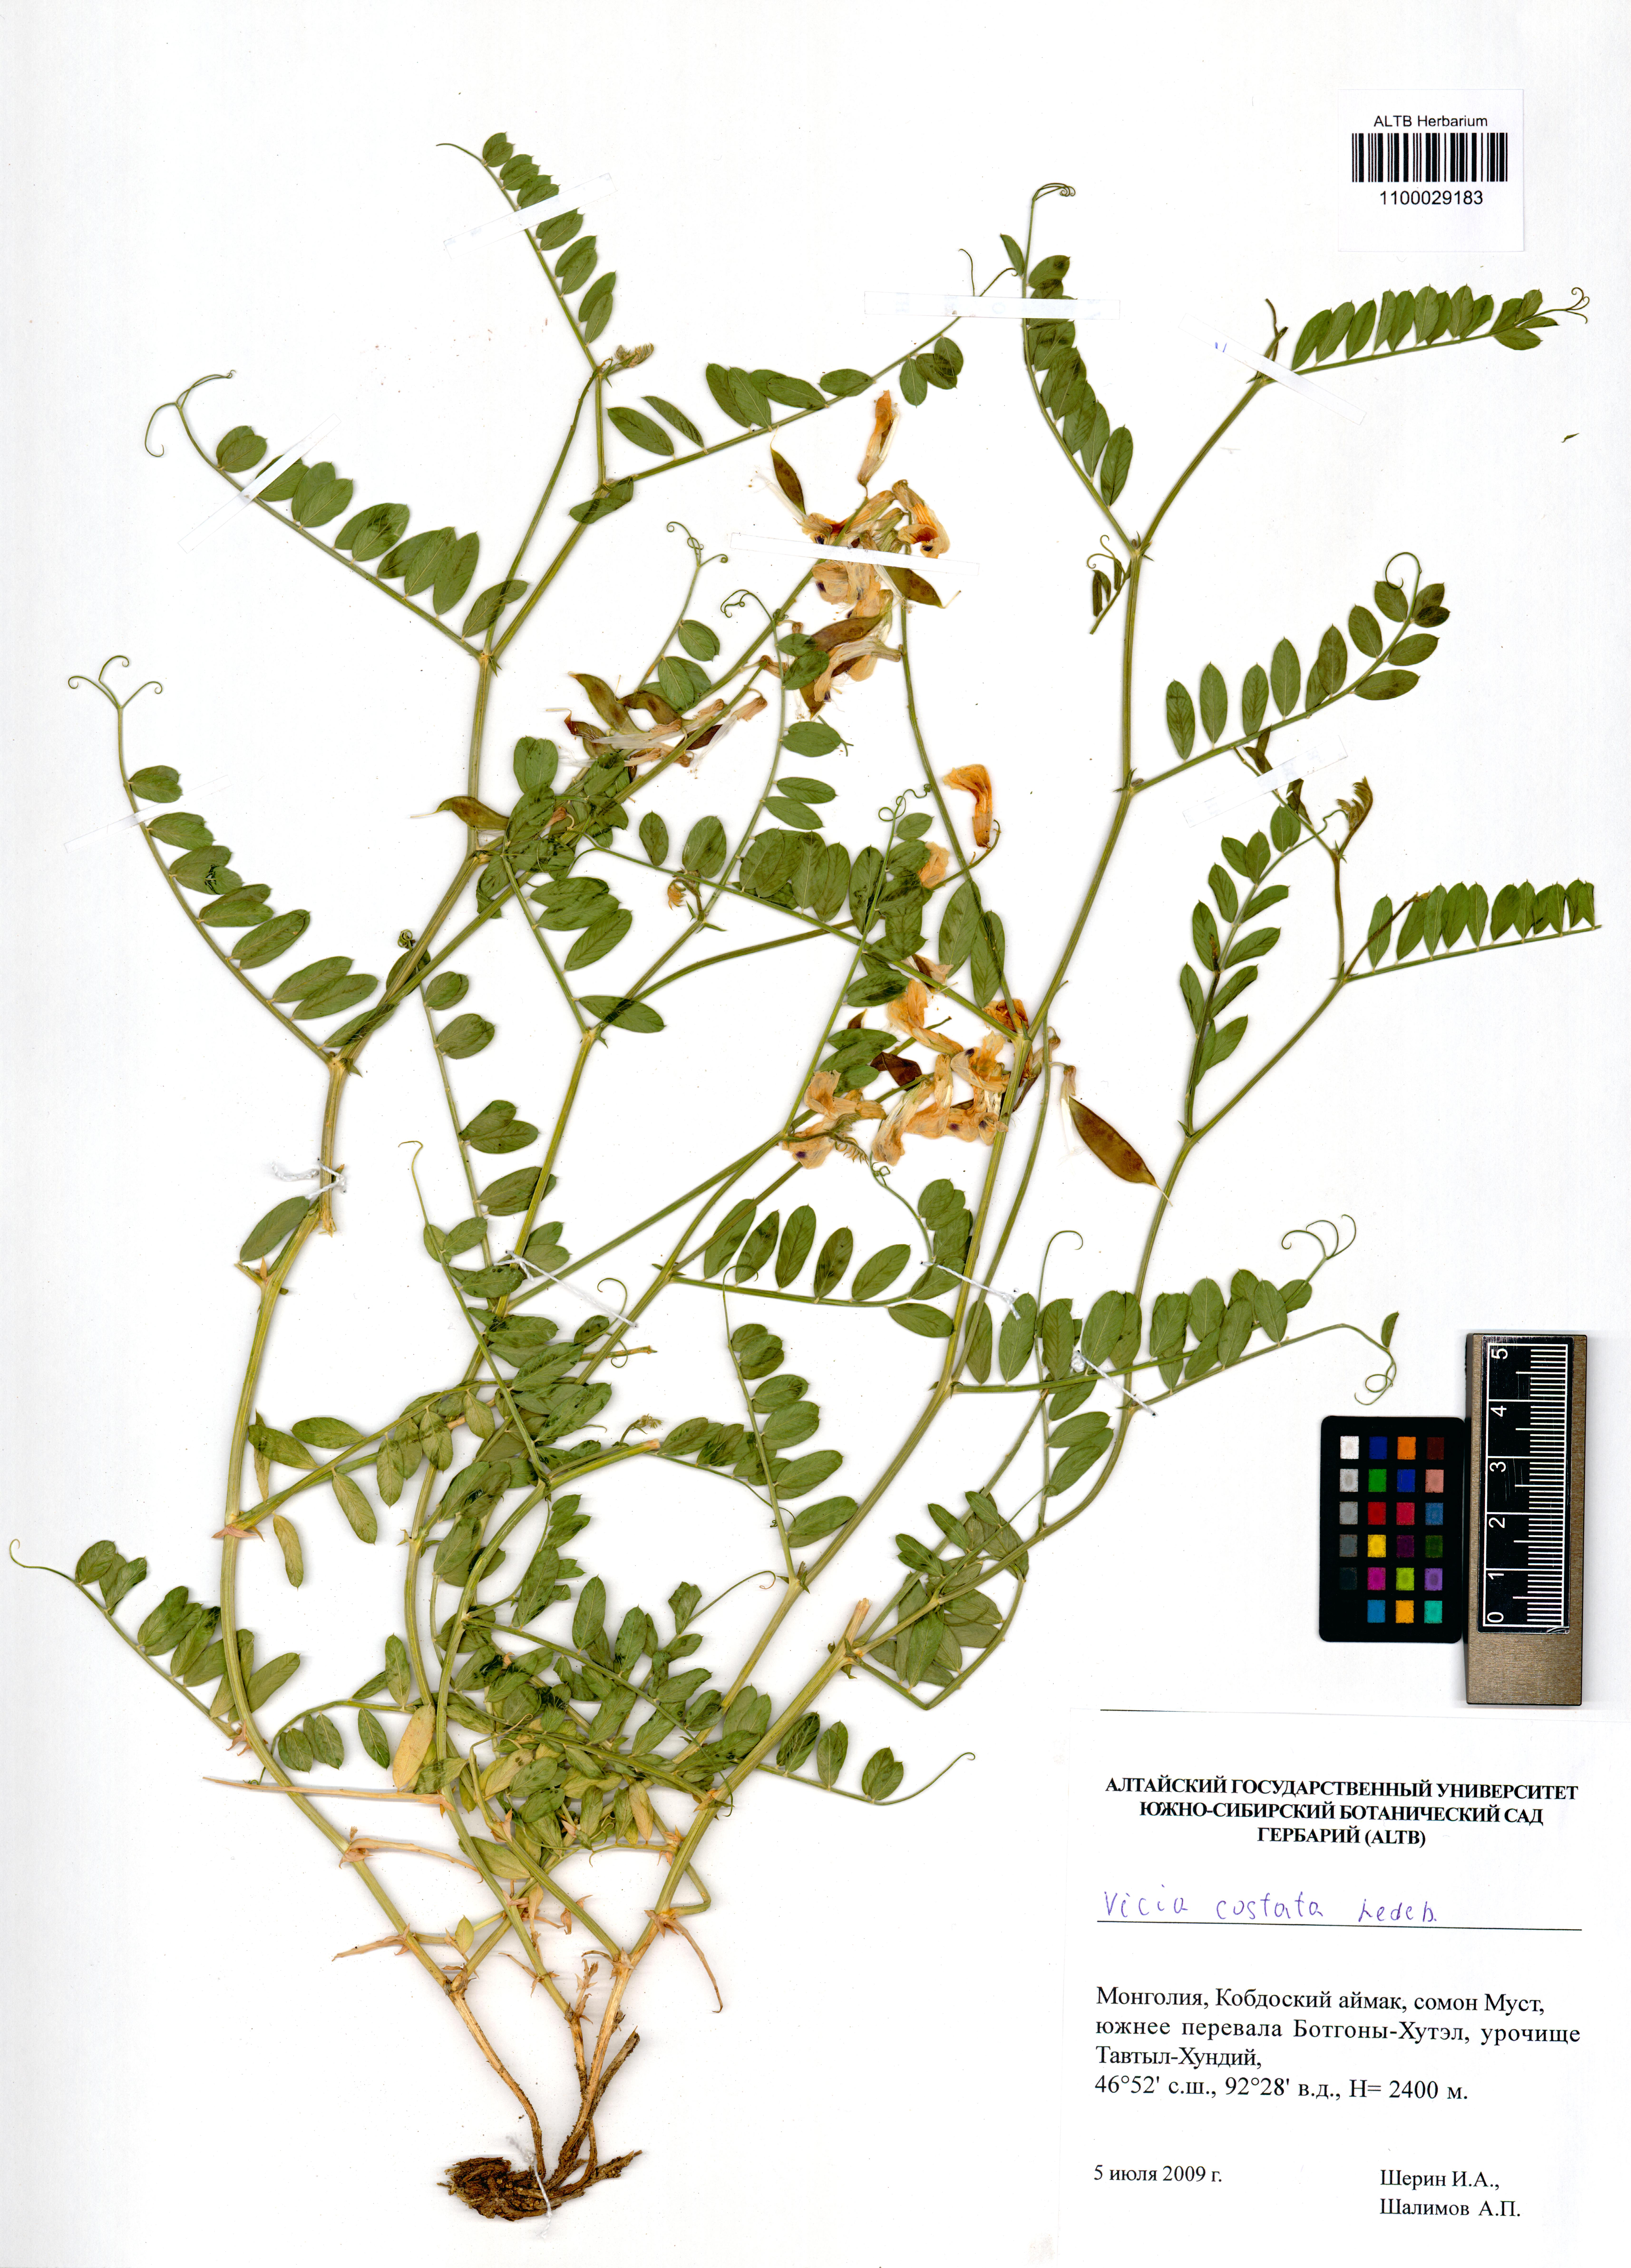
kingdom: Plantae
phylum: Tracheophyta
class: Magnoliopsida
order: Fabales
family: Fabaceae
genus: Vicia
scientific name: Vicia costata
